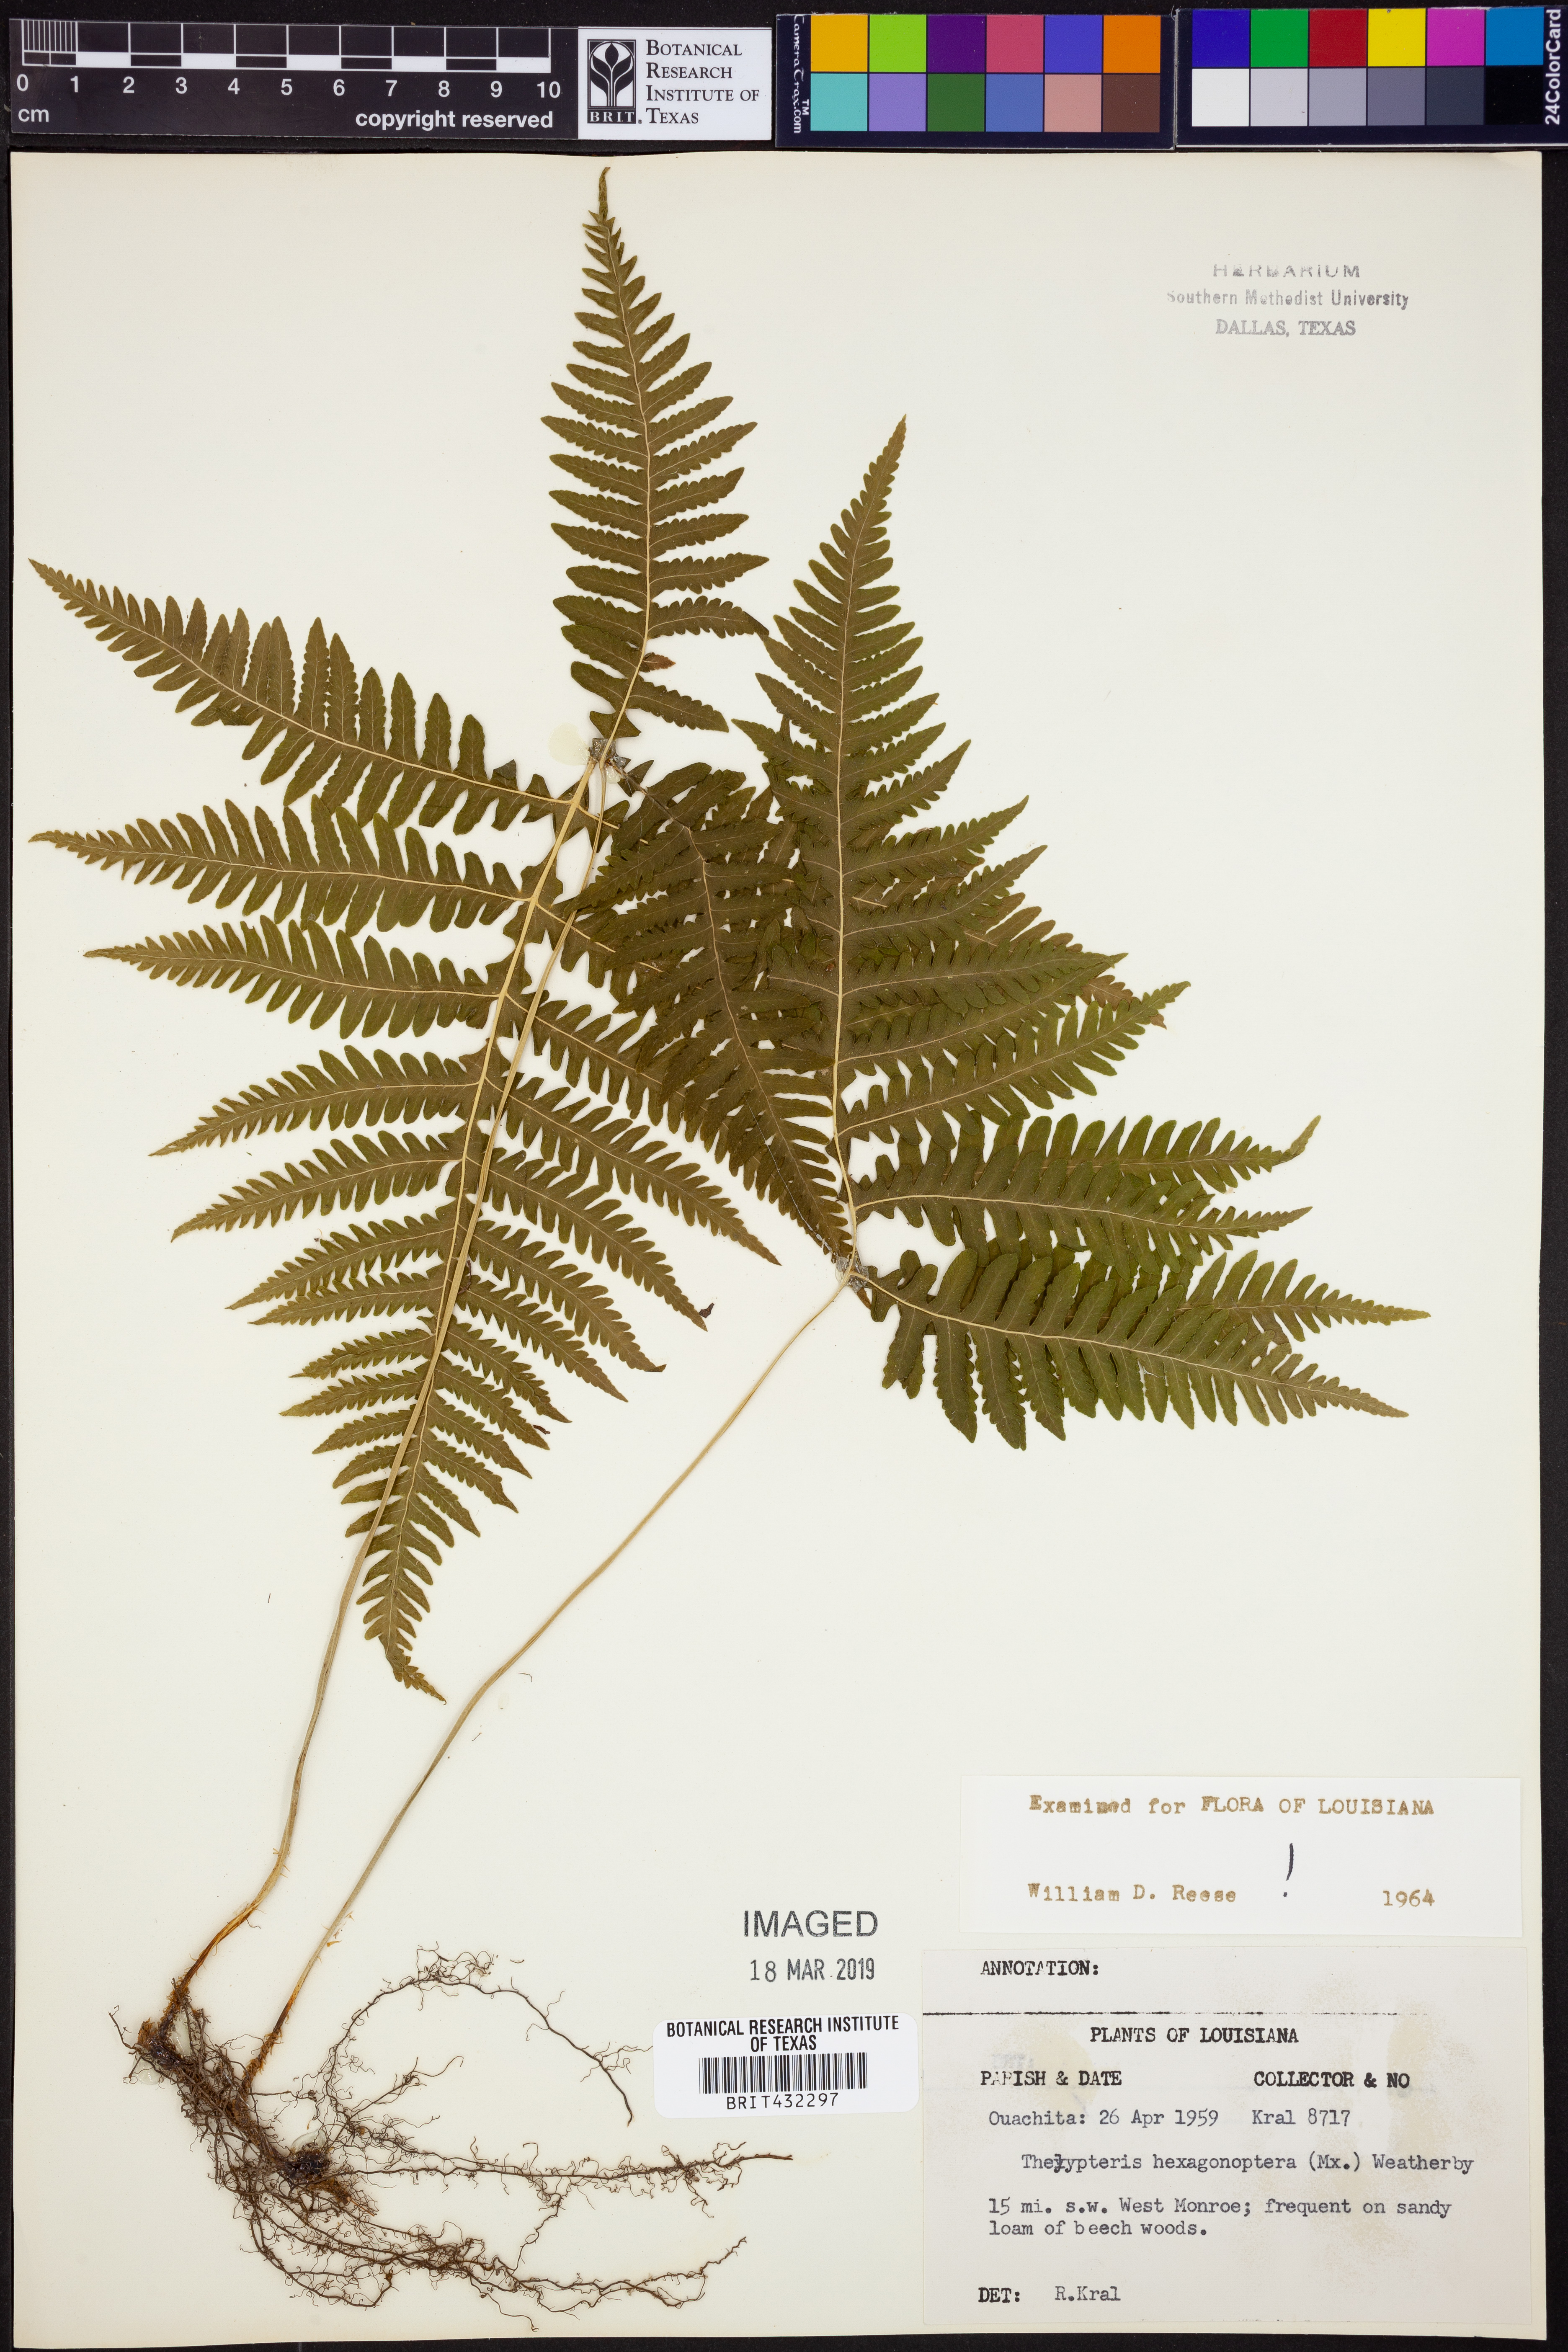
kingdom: Plantae
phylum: Tracheophyta
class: Polypodiopsida
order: Polypodiales
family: Thelypteridaceae
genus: Phegopteris
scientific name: Phegopteris hexagonoptera
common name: Broad beech fern
